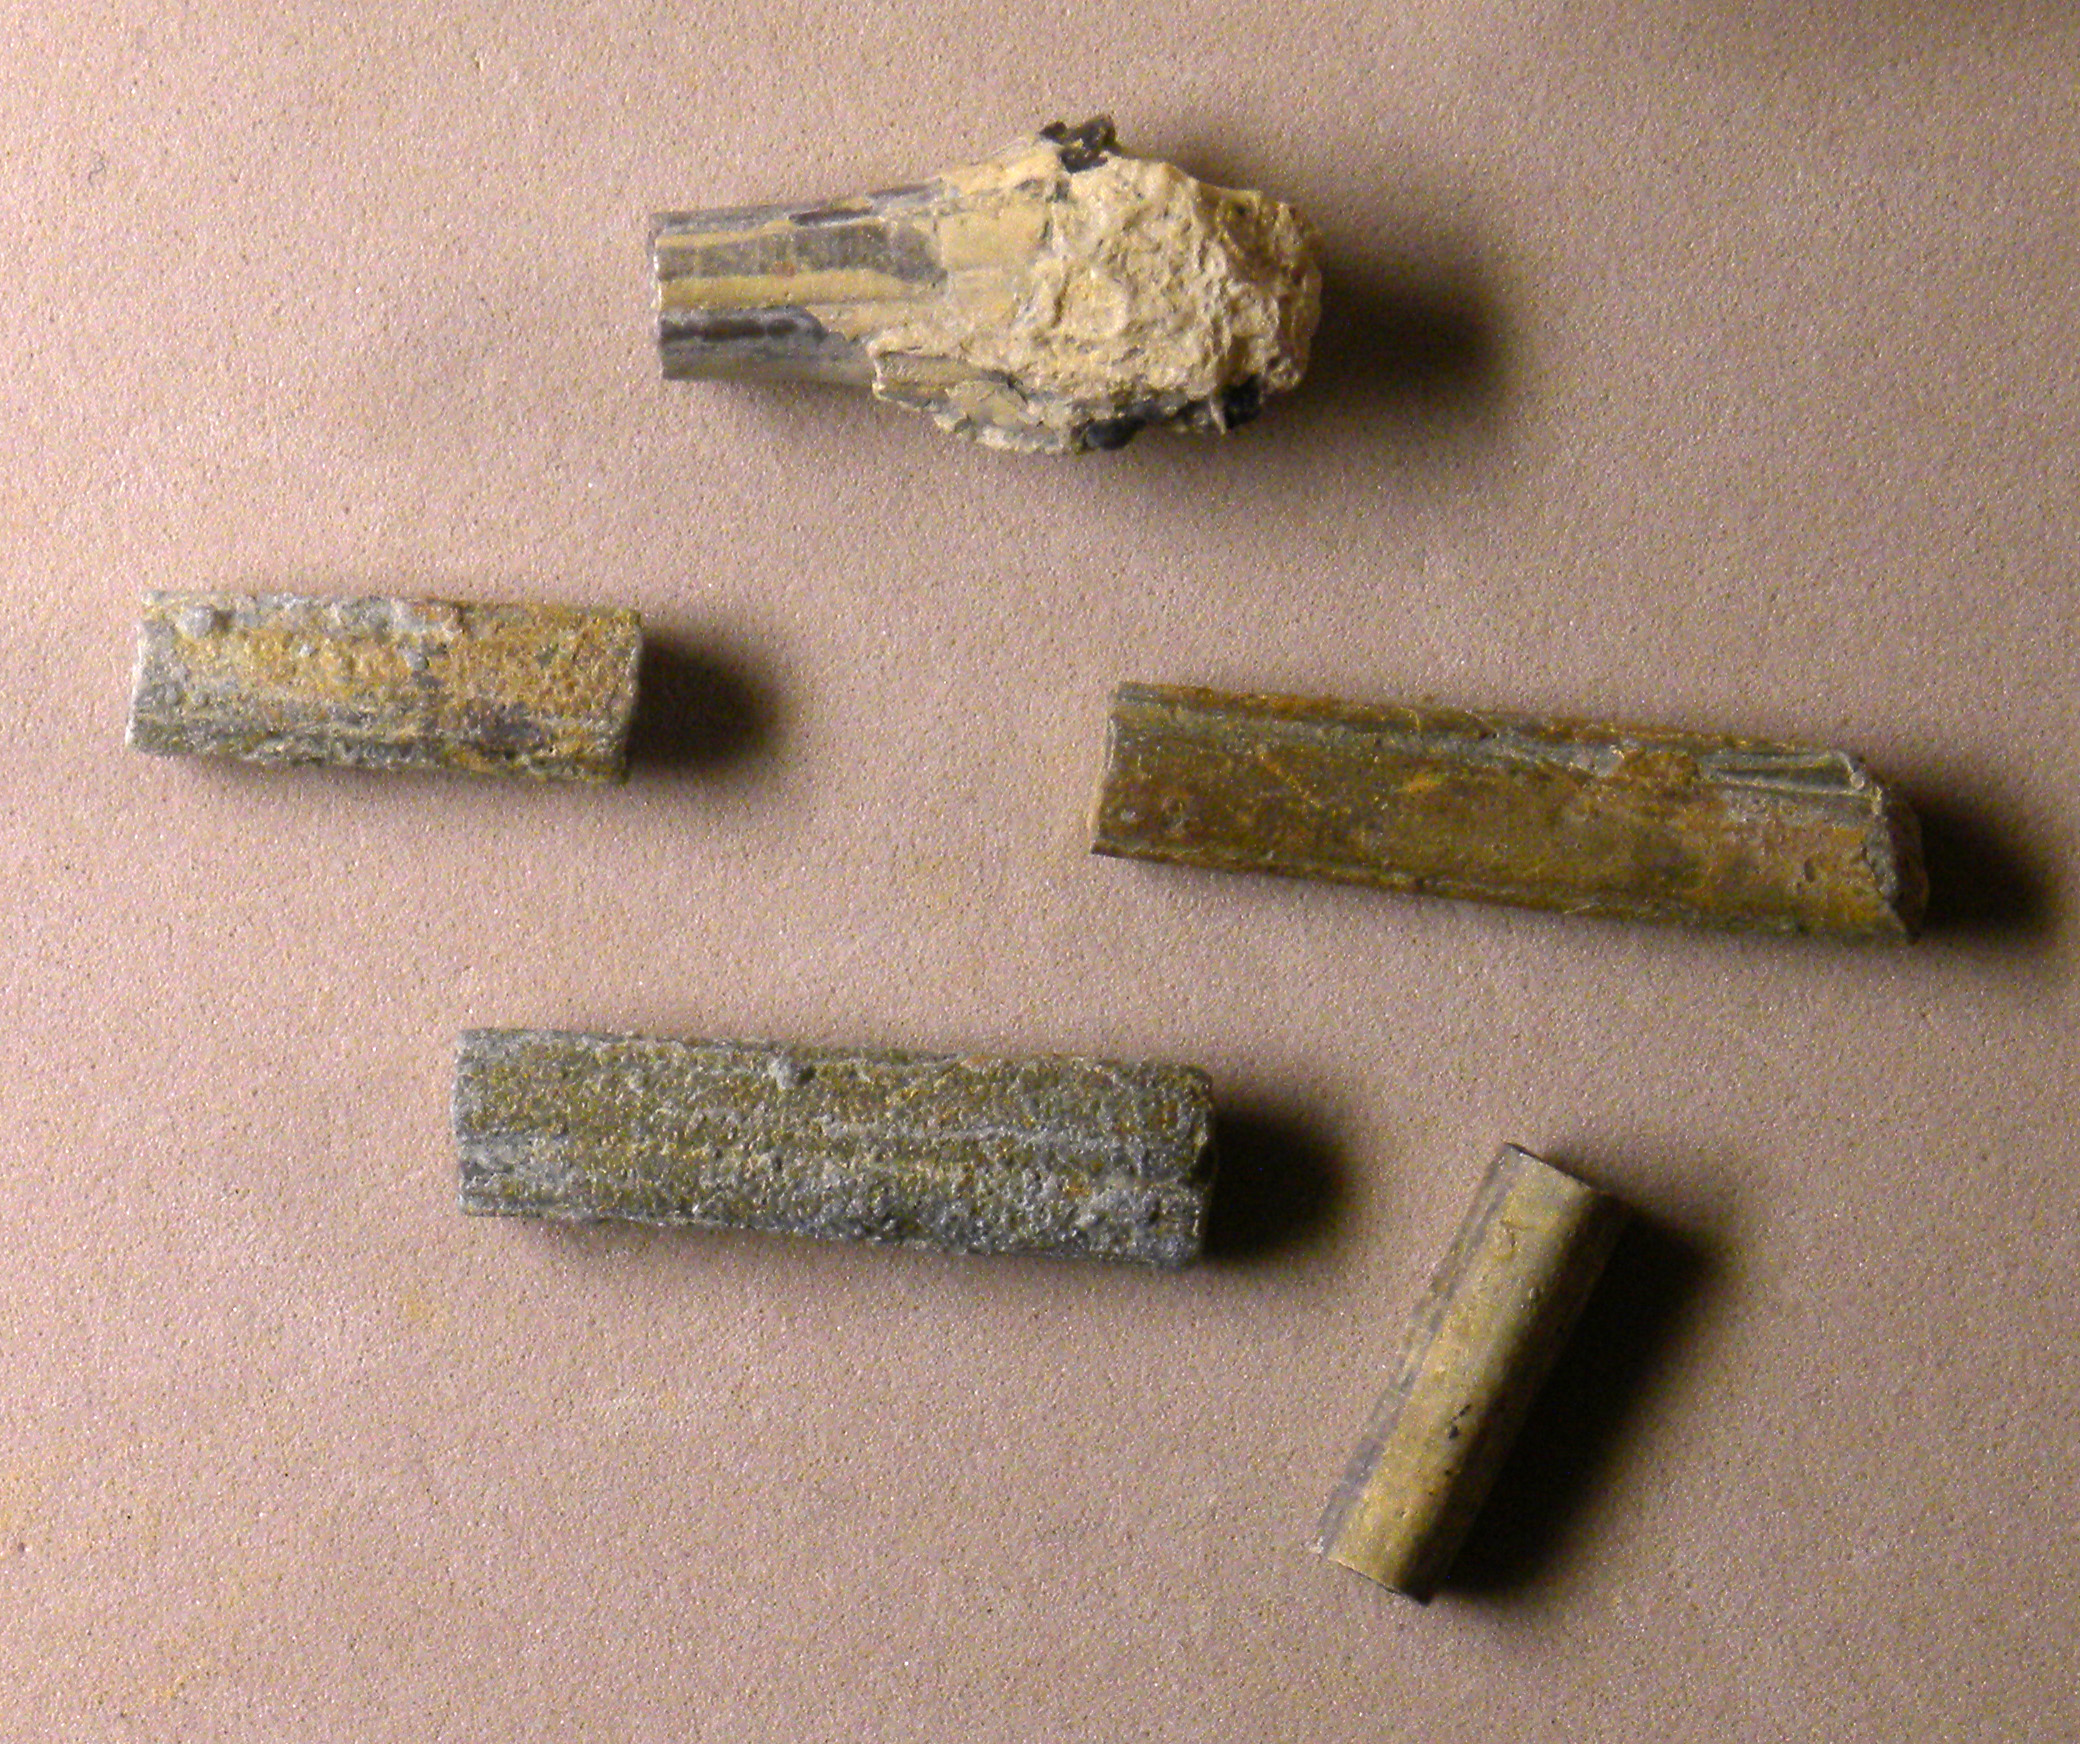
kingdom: Animalia
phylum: Mollusca
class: Cephalopoda
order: Belemnitida
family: Salpingoteuthididae
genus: Salpingoteuthis
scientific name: Salpingoteuthis trisulcata
